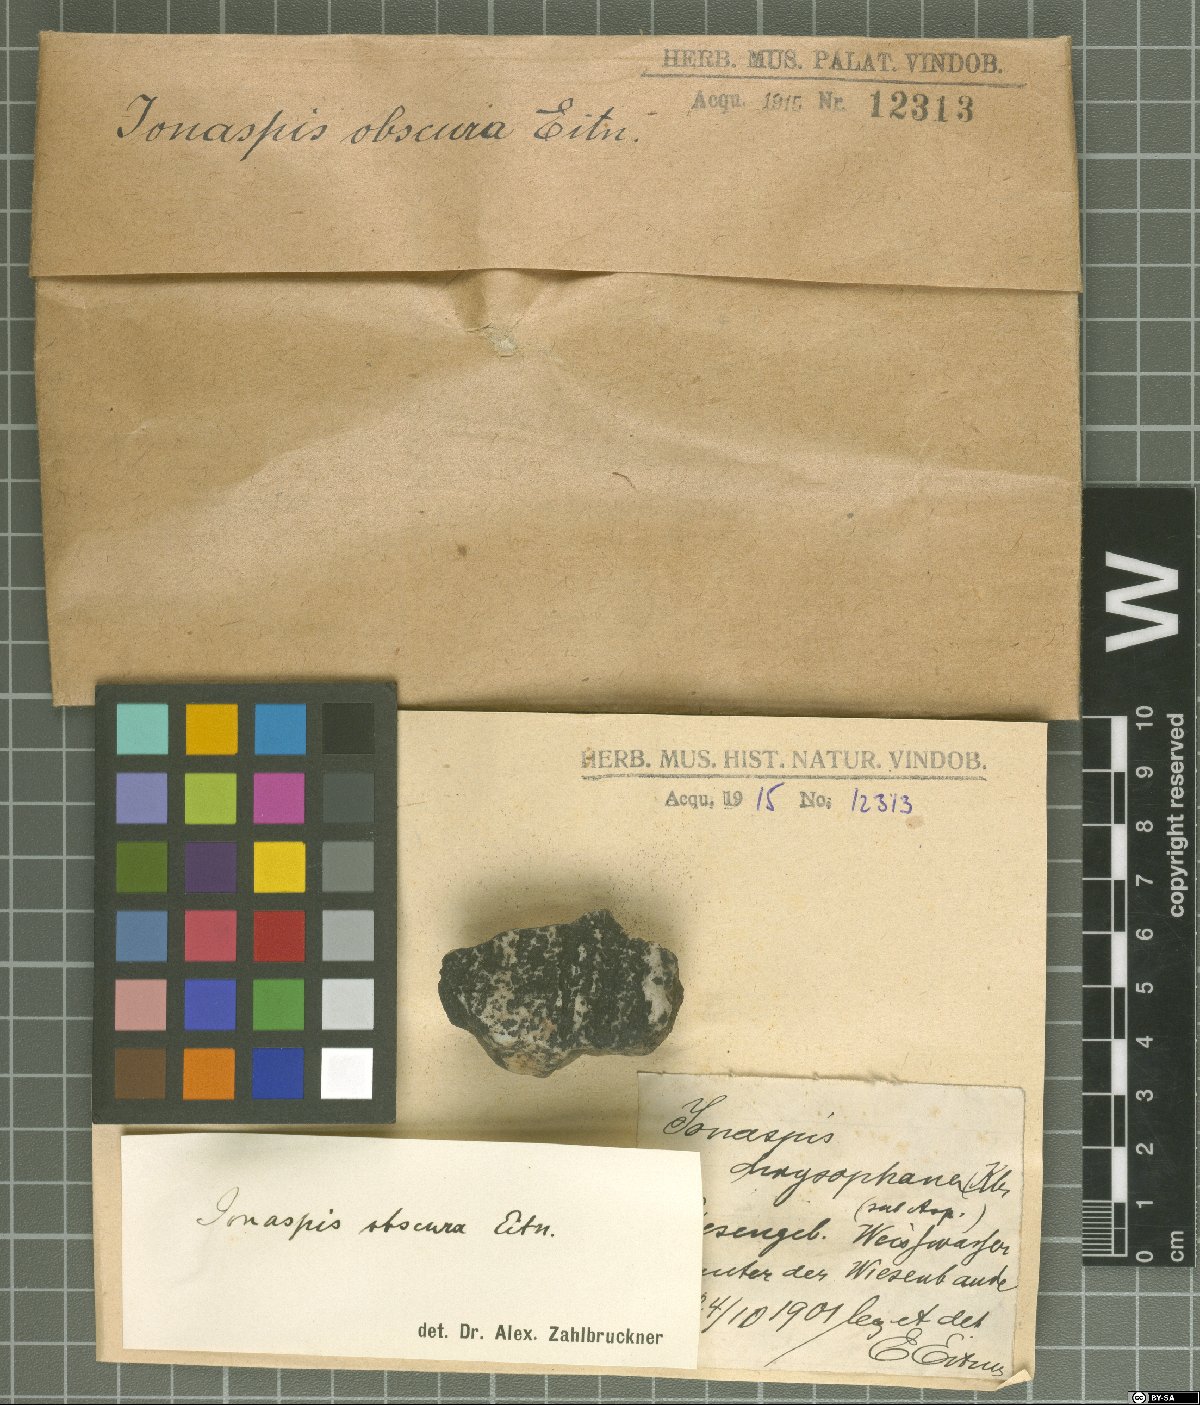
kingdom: Fungi
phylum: Ascomycota
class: Lecanoromycetes
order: Hymeneliales
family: Hymeneliaceae
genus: Ionaspis
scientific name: Ionaspis obscura
